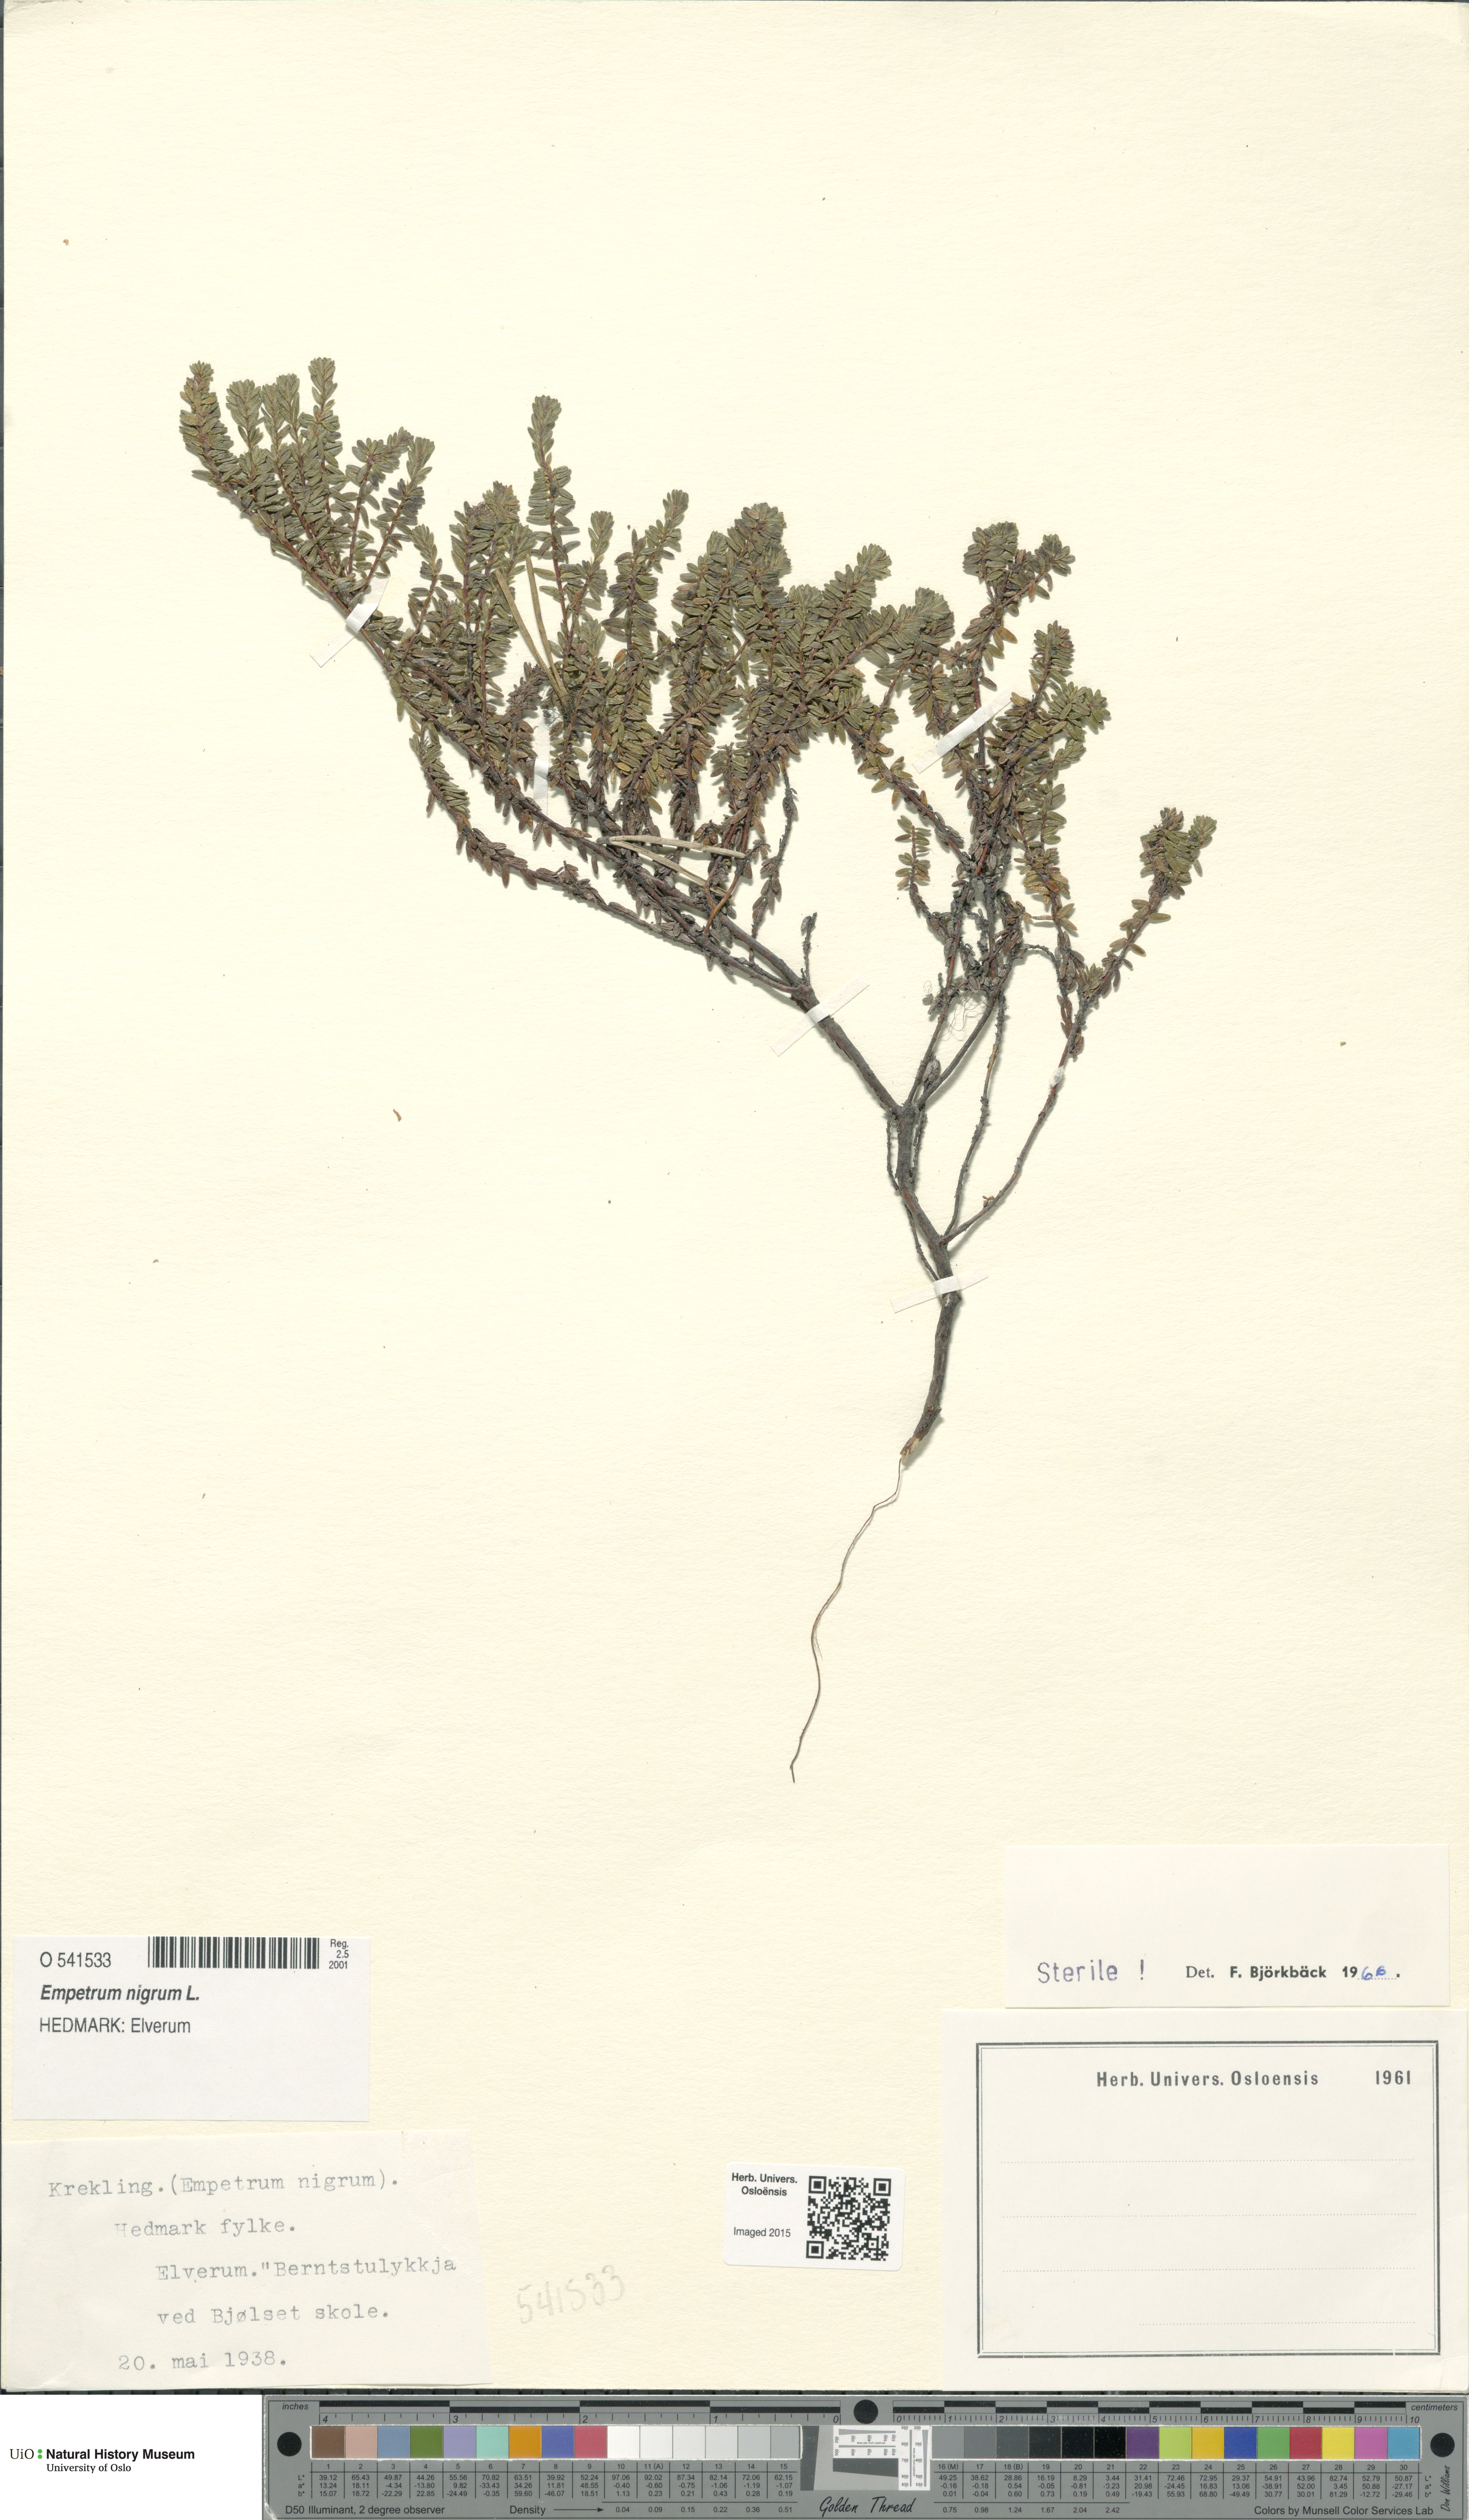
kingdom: Plantae
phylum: Tracheophyta
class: Magnoliopsida
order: Ericales
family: Ericaceae
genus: Empetrum
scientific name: Empetrum nigrum
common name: Black crowberry
